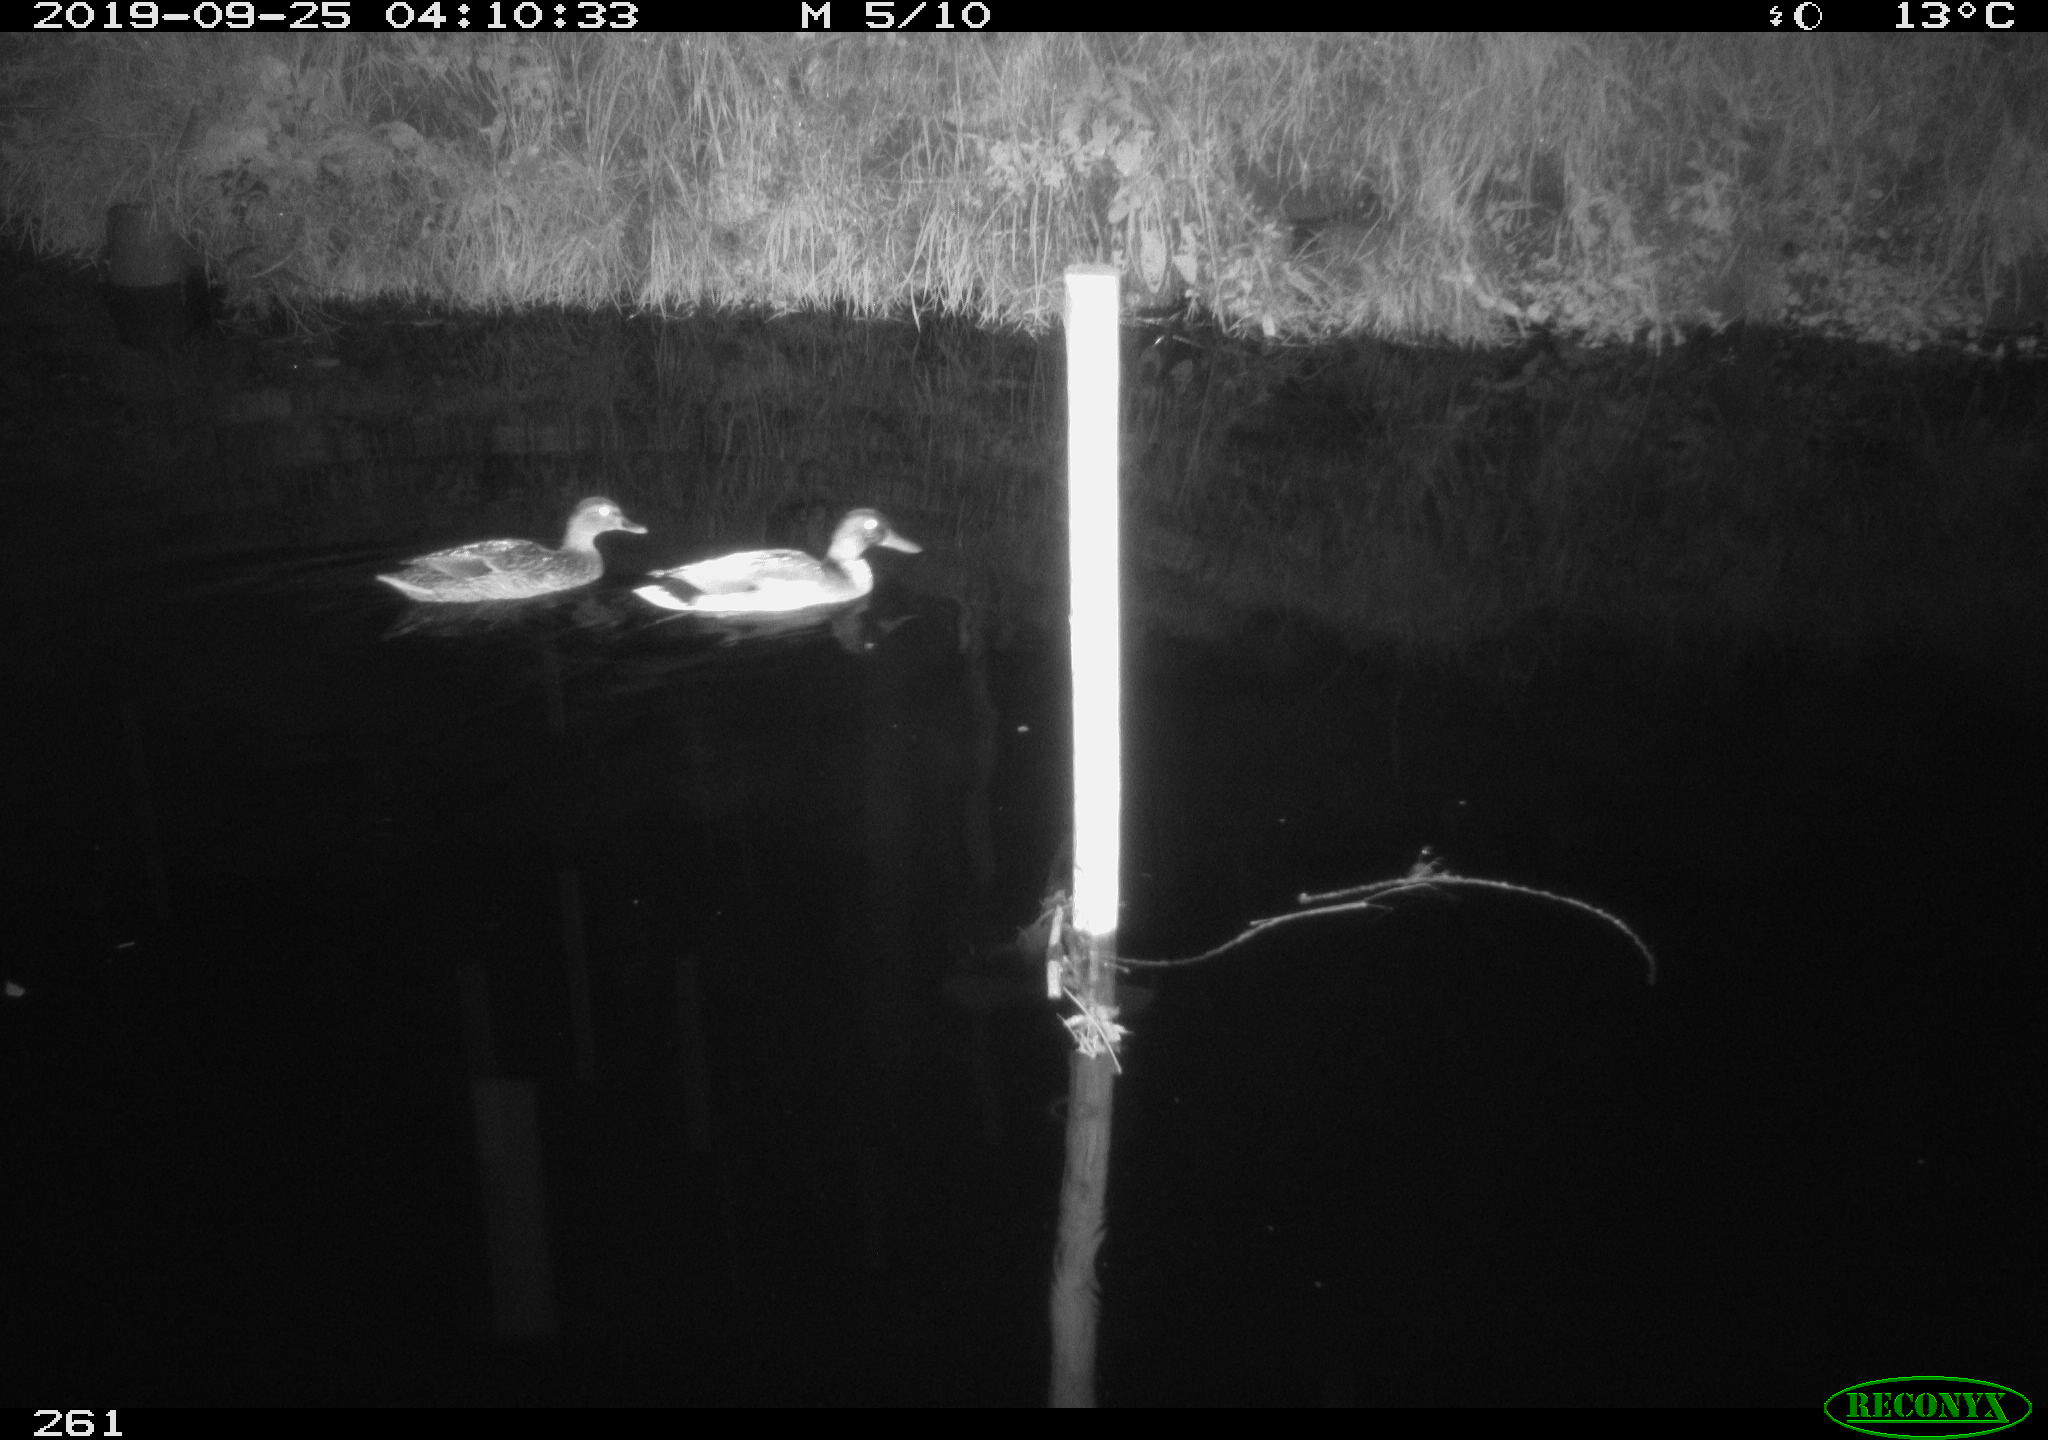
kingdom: Animalia
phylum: Chordata
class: Aves
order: Anseriformes
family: Anatidae
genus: Anas
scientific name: Anas platyrhynchos
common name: Mallard
